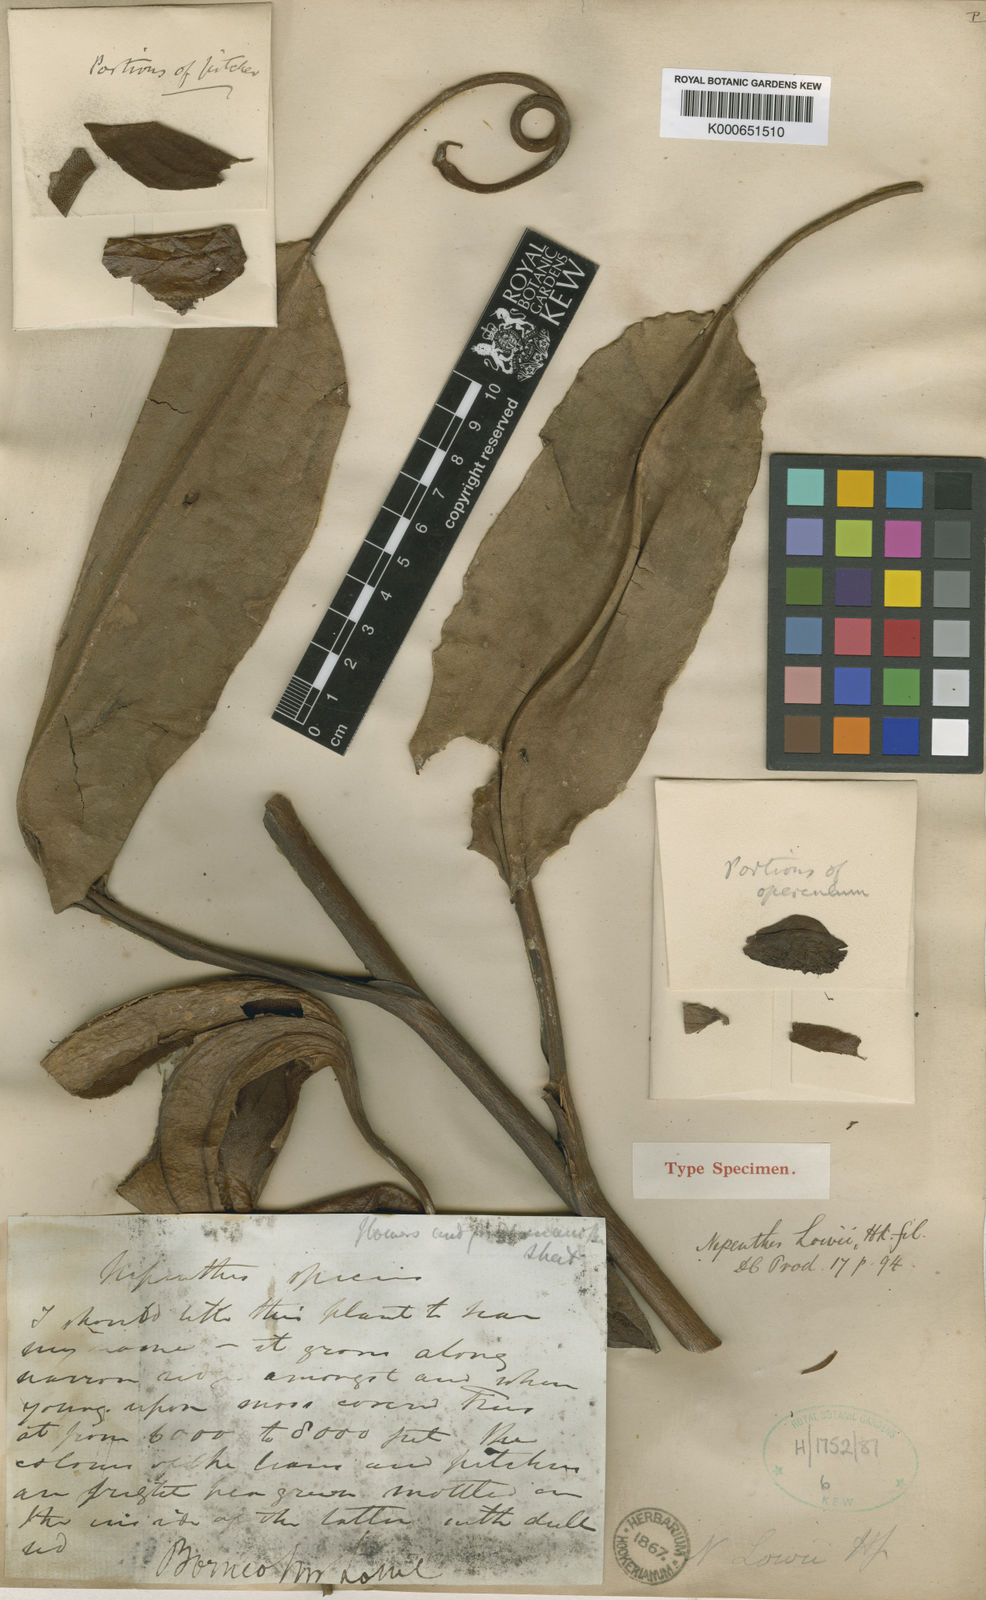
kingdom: Plantae
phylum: Tracheophyta
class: Magnoliopsida
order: Caryophyllales
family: Nepenthaceae
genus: Nepenthes
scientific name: Nepenthes lowii
